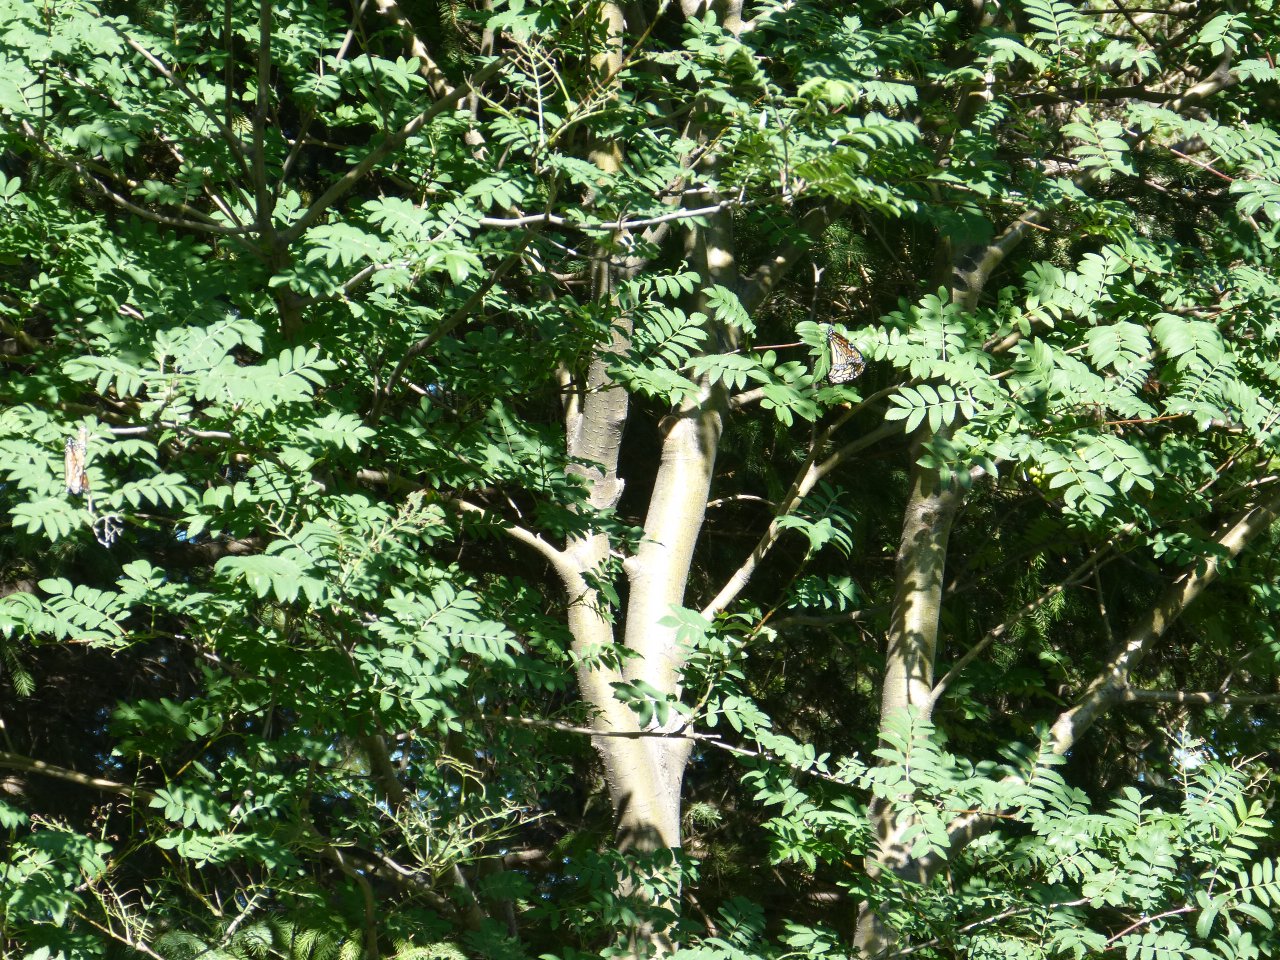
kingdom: Animalia
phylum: Arthropoda
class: Insecta
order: Lepidoptera
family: Nymphalidae
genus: Danaus
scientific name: Danaus plexippus
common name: Monarch
